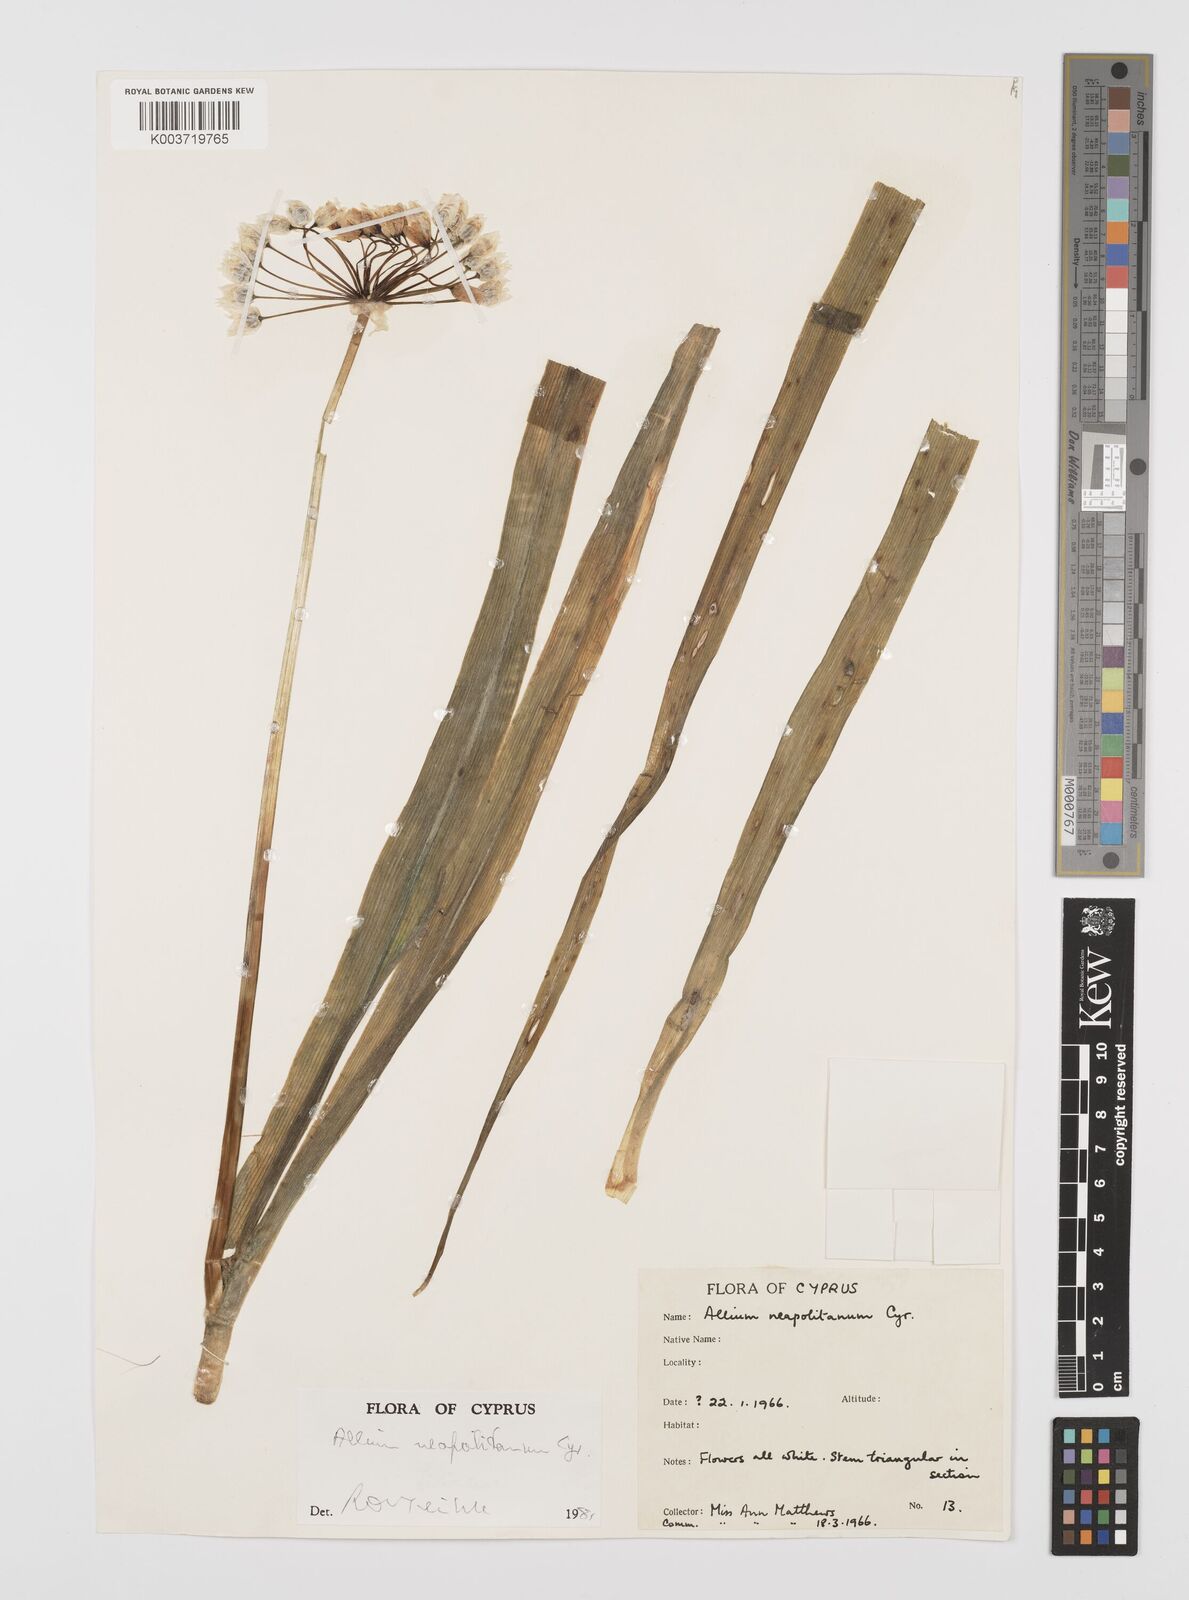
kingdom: Plantae
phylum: Tracheophyta
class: Liliopsida
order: Asparagales
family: Amaryllidaceae
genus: Allium
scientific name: Allium neapolitanum
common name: Neapolitan garlic
